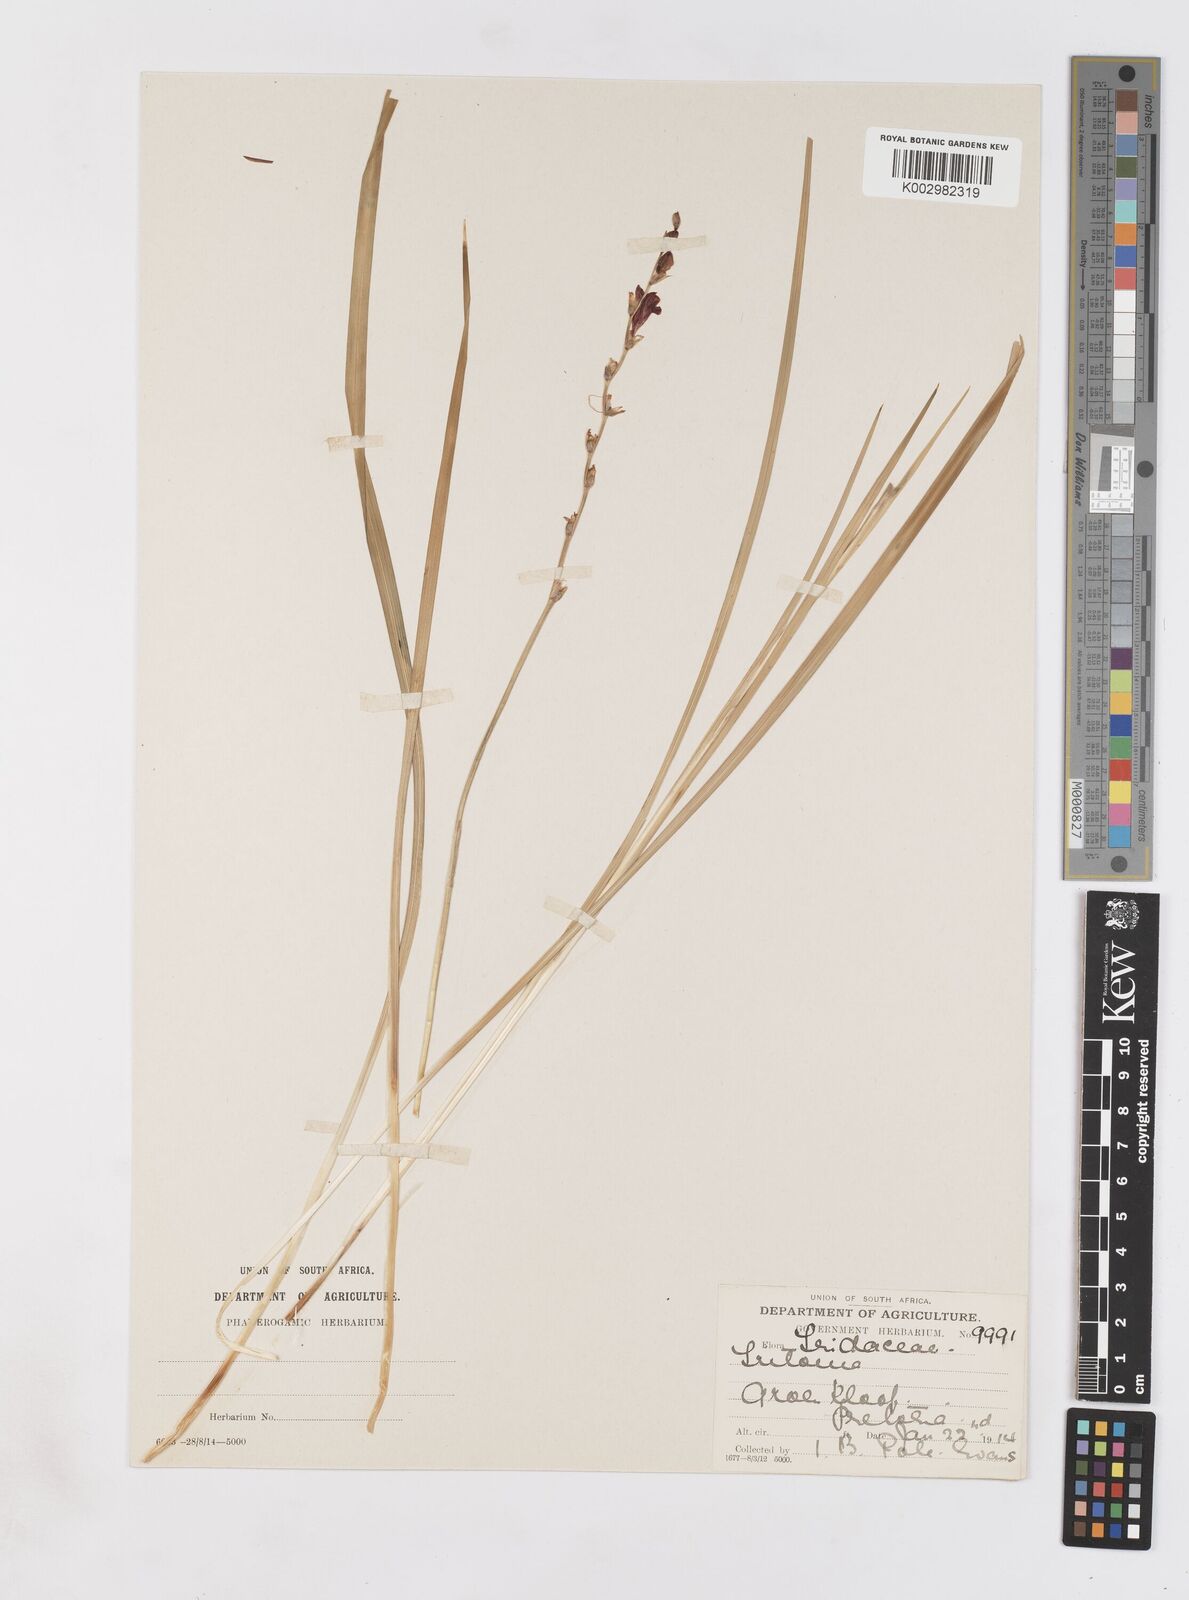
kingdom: Plantae
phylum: Tracheophyta
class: Liliopsida
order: Asparagales
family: Iridaceae
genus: Tritonia
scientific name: Tritonia nelsonii
